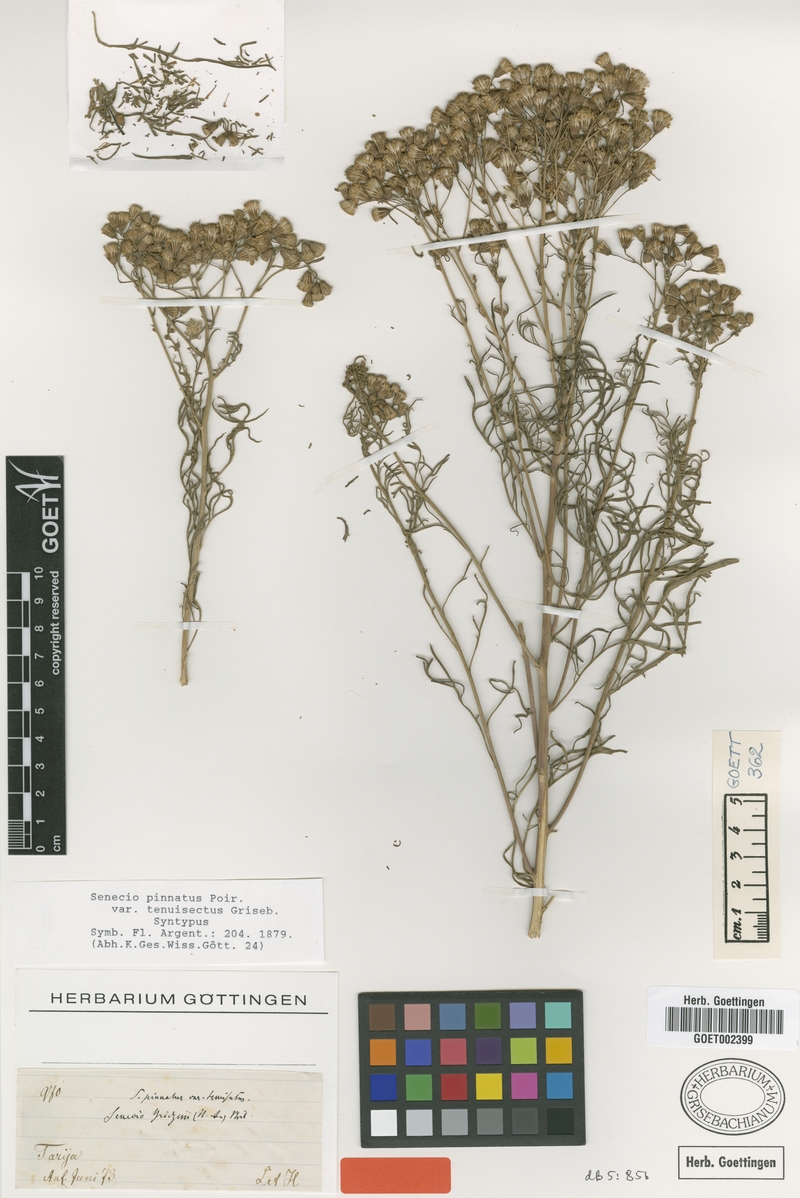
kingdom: Plantae
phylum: Tracheophyta
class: Magnoliopsida
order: Asterales
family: Asteraceae
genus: Senecio
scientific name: Senecio pinnatus
